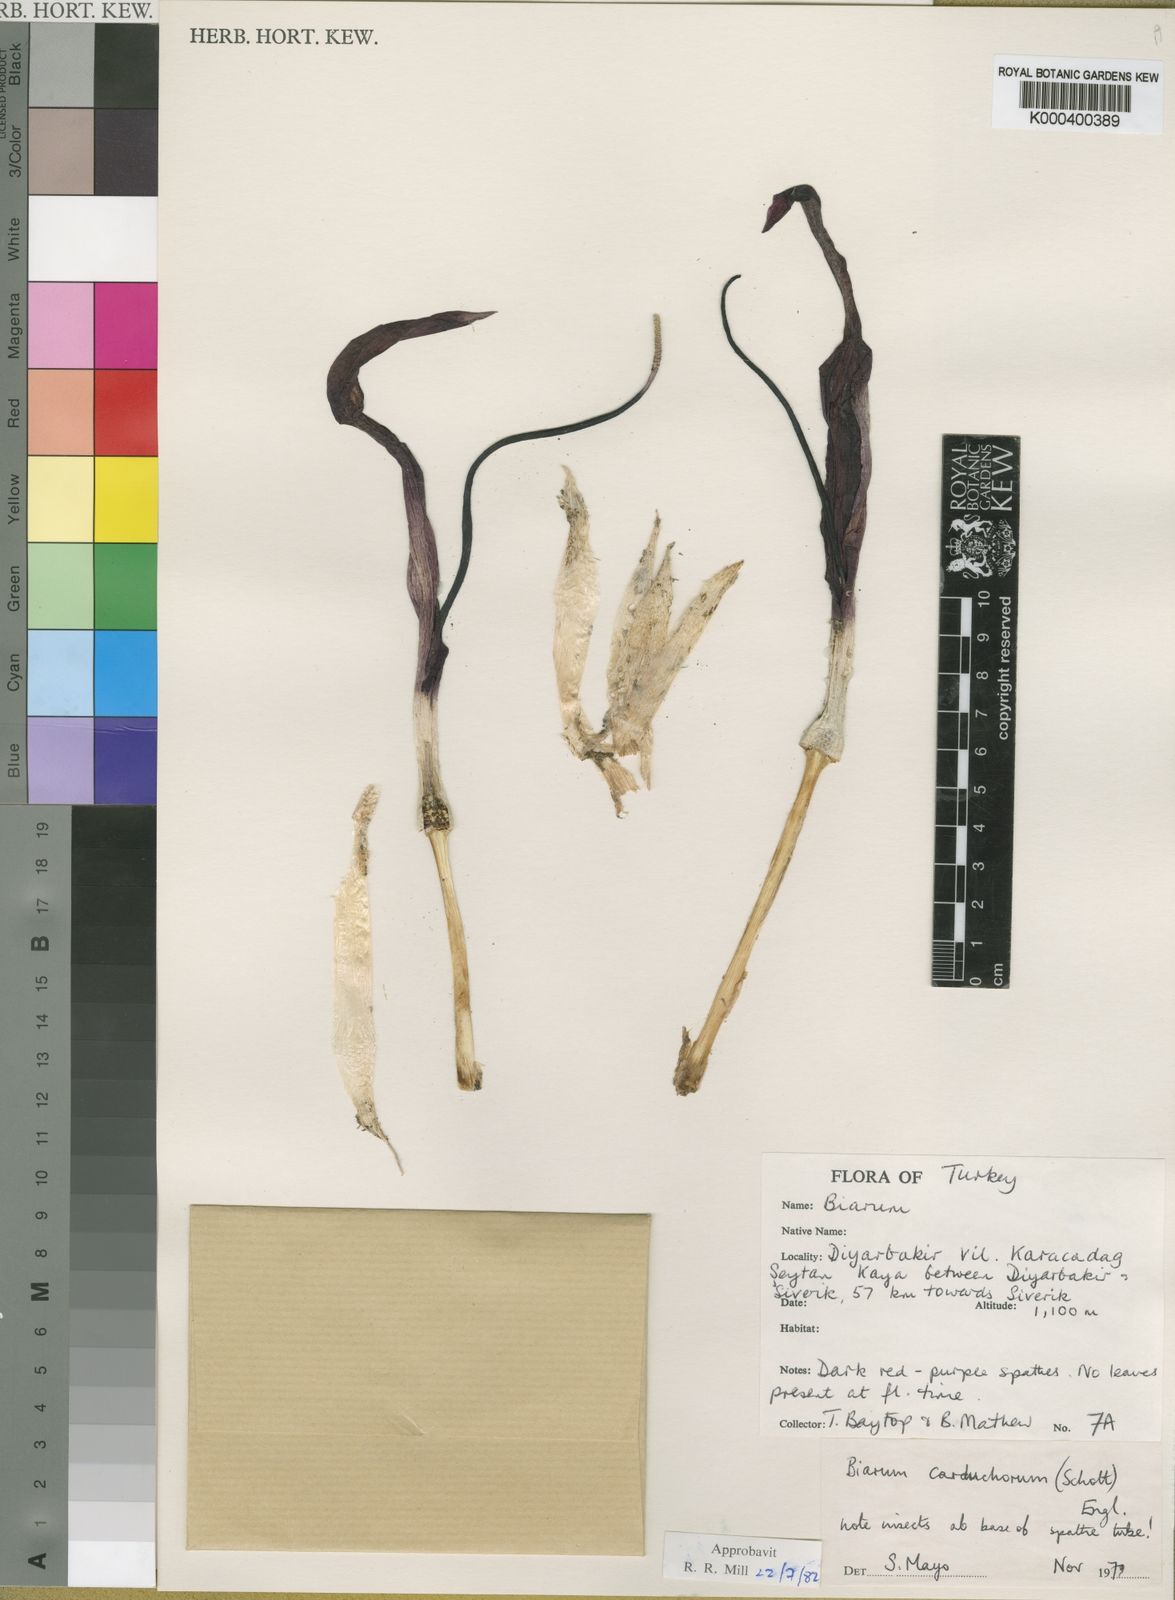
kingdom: Plantae
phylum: Tracheophyta
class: Liliopsida
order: Alismatales
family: Araceae
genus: Biarum
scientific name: Biarum carduchorum
